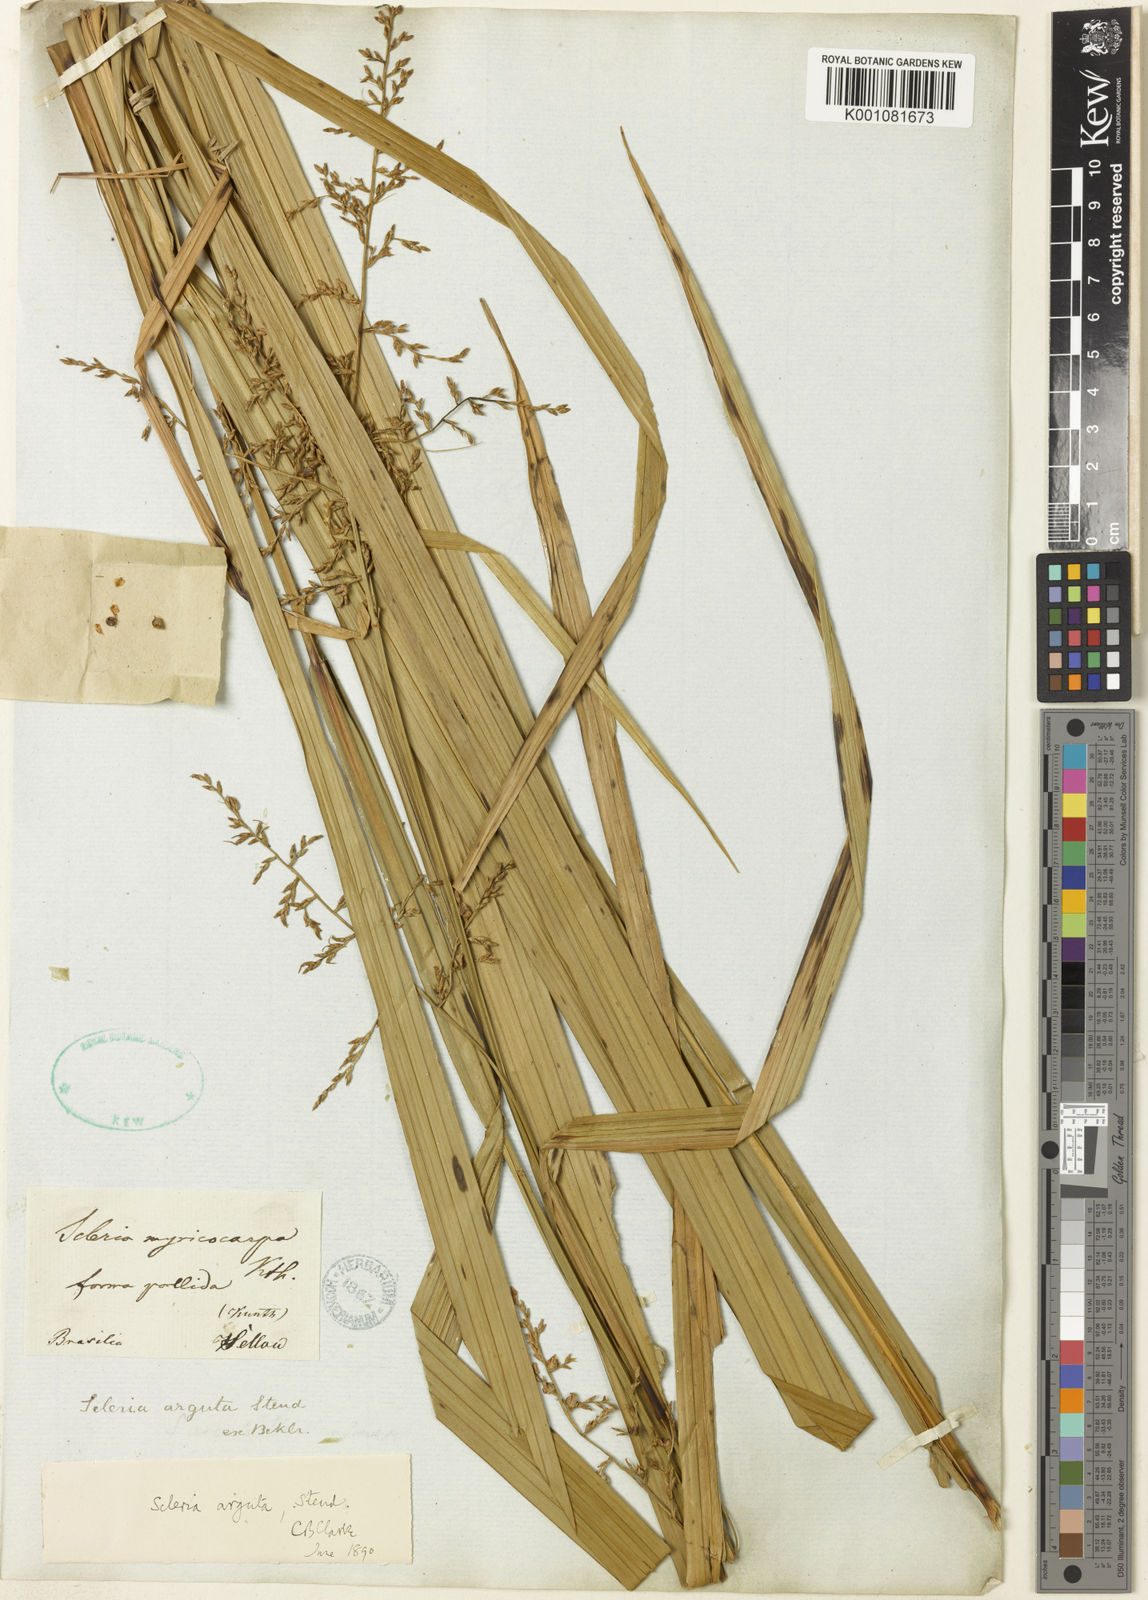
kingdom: Plantae
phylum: Tracheophyta
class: Liliopsida
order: Poales
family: Cyperaceae
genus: Scleria
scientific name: Scleria arguta
